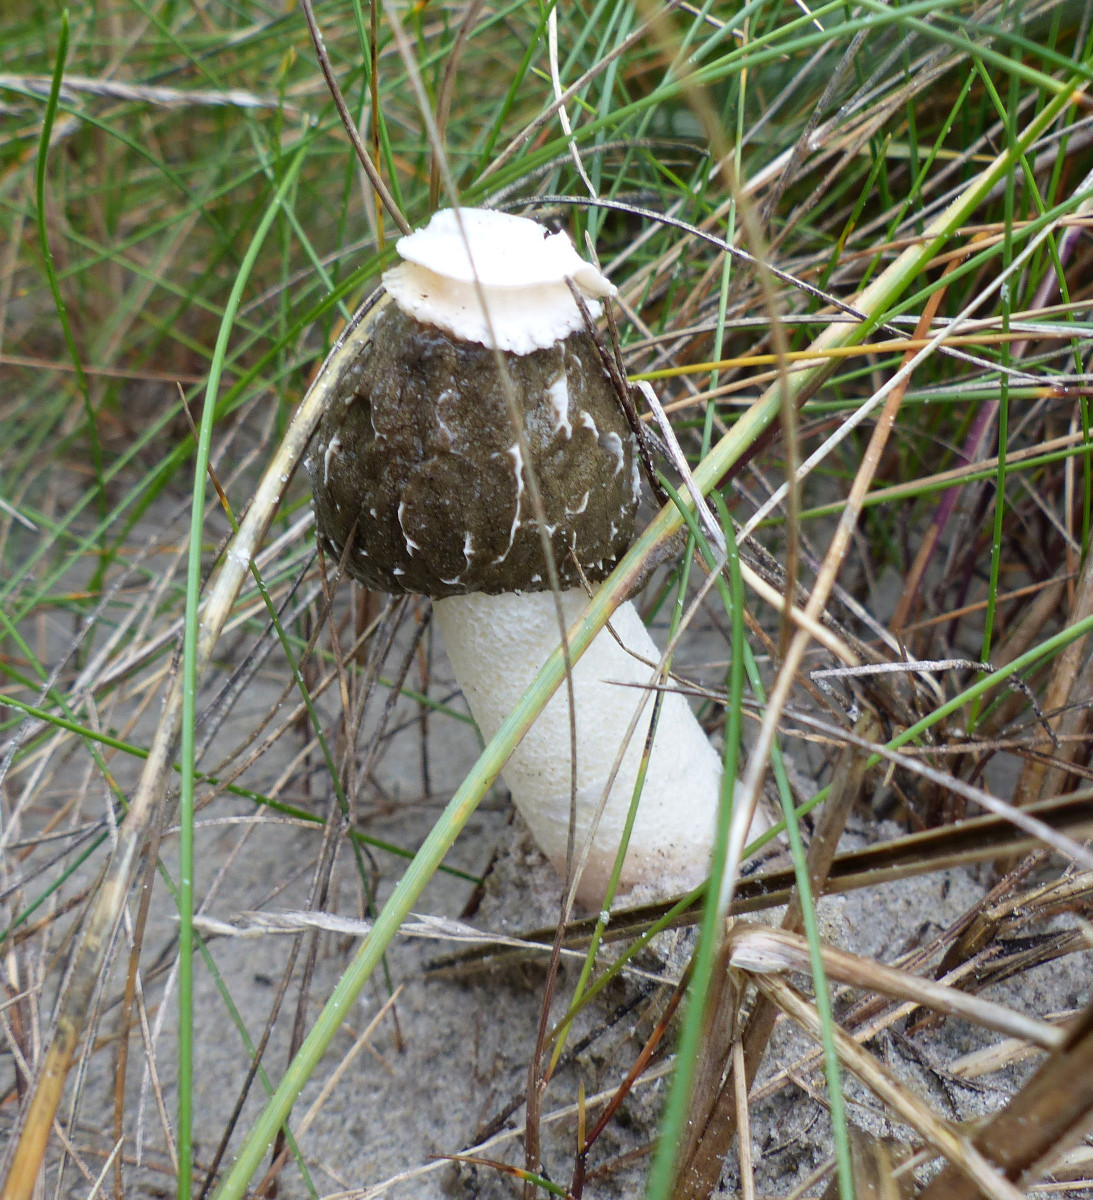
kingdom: Fungi
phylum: Basidiomycota
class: Agaricomycetes
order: Phallales
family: Phallaceae
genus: Phallus
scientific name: Phallus hadriani
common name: sand-stinksvamp
